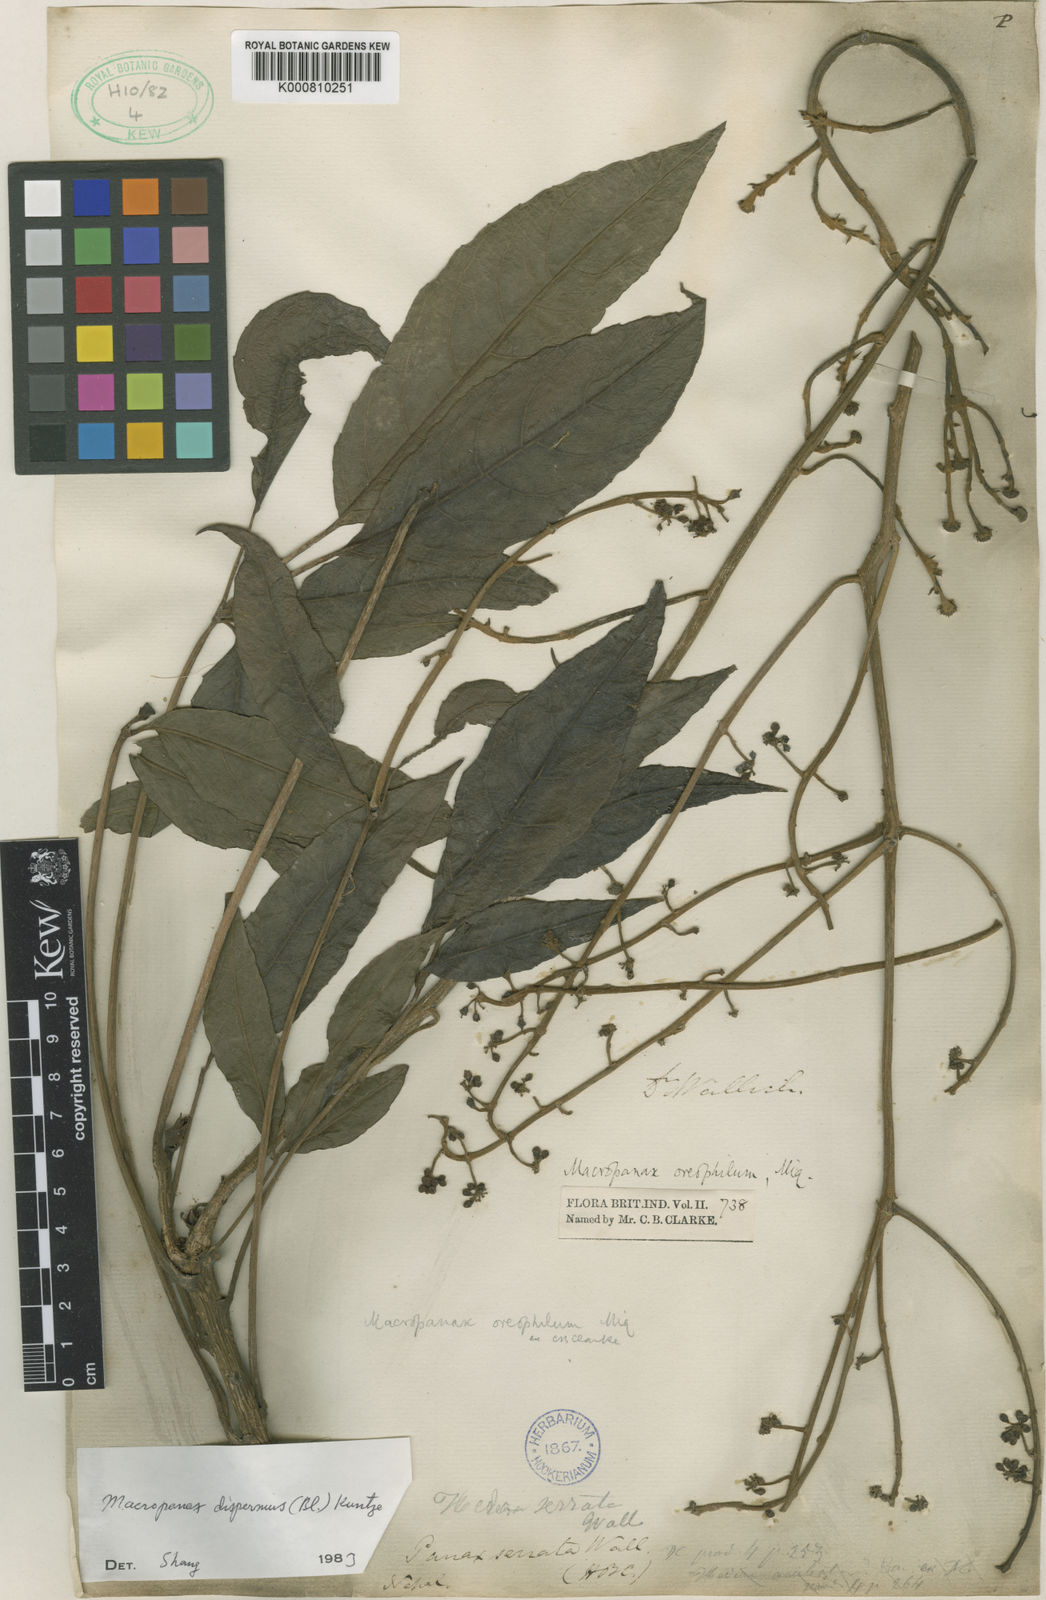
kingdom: Plantae
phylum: Tracheophyta
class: Magnoliopsida
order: Apiales
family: Araliaceae
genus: Macropanax
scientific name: Macropanax dispermus
